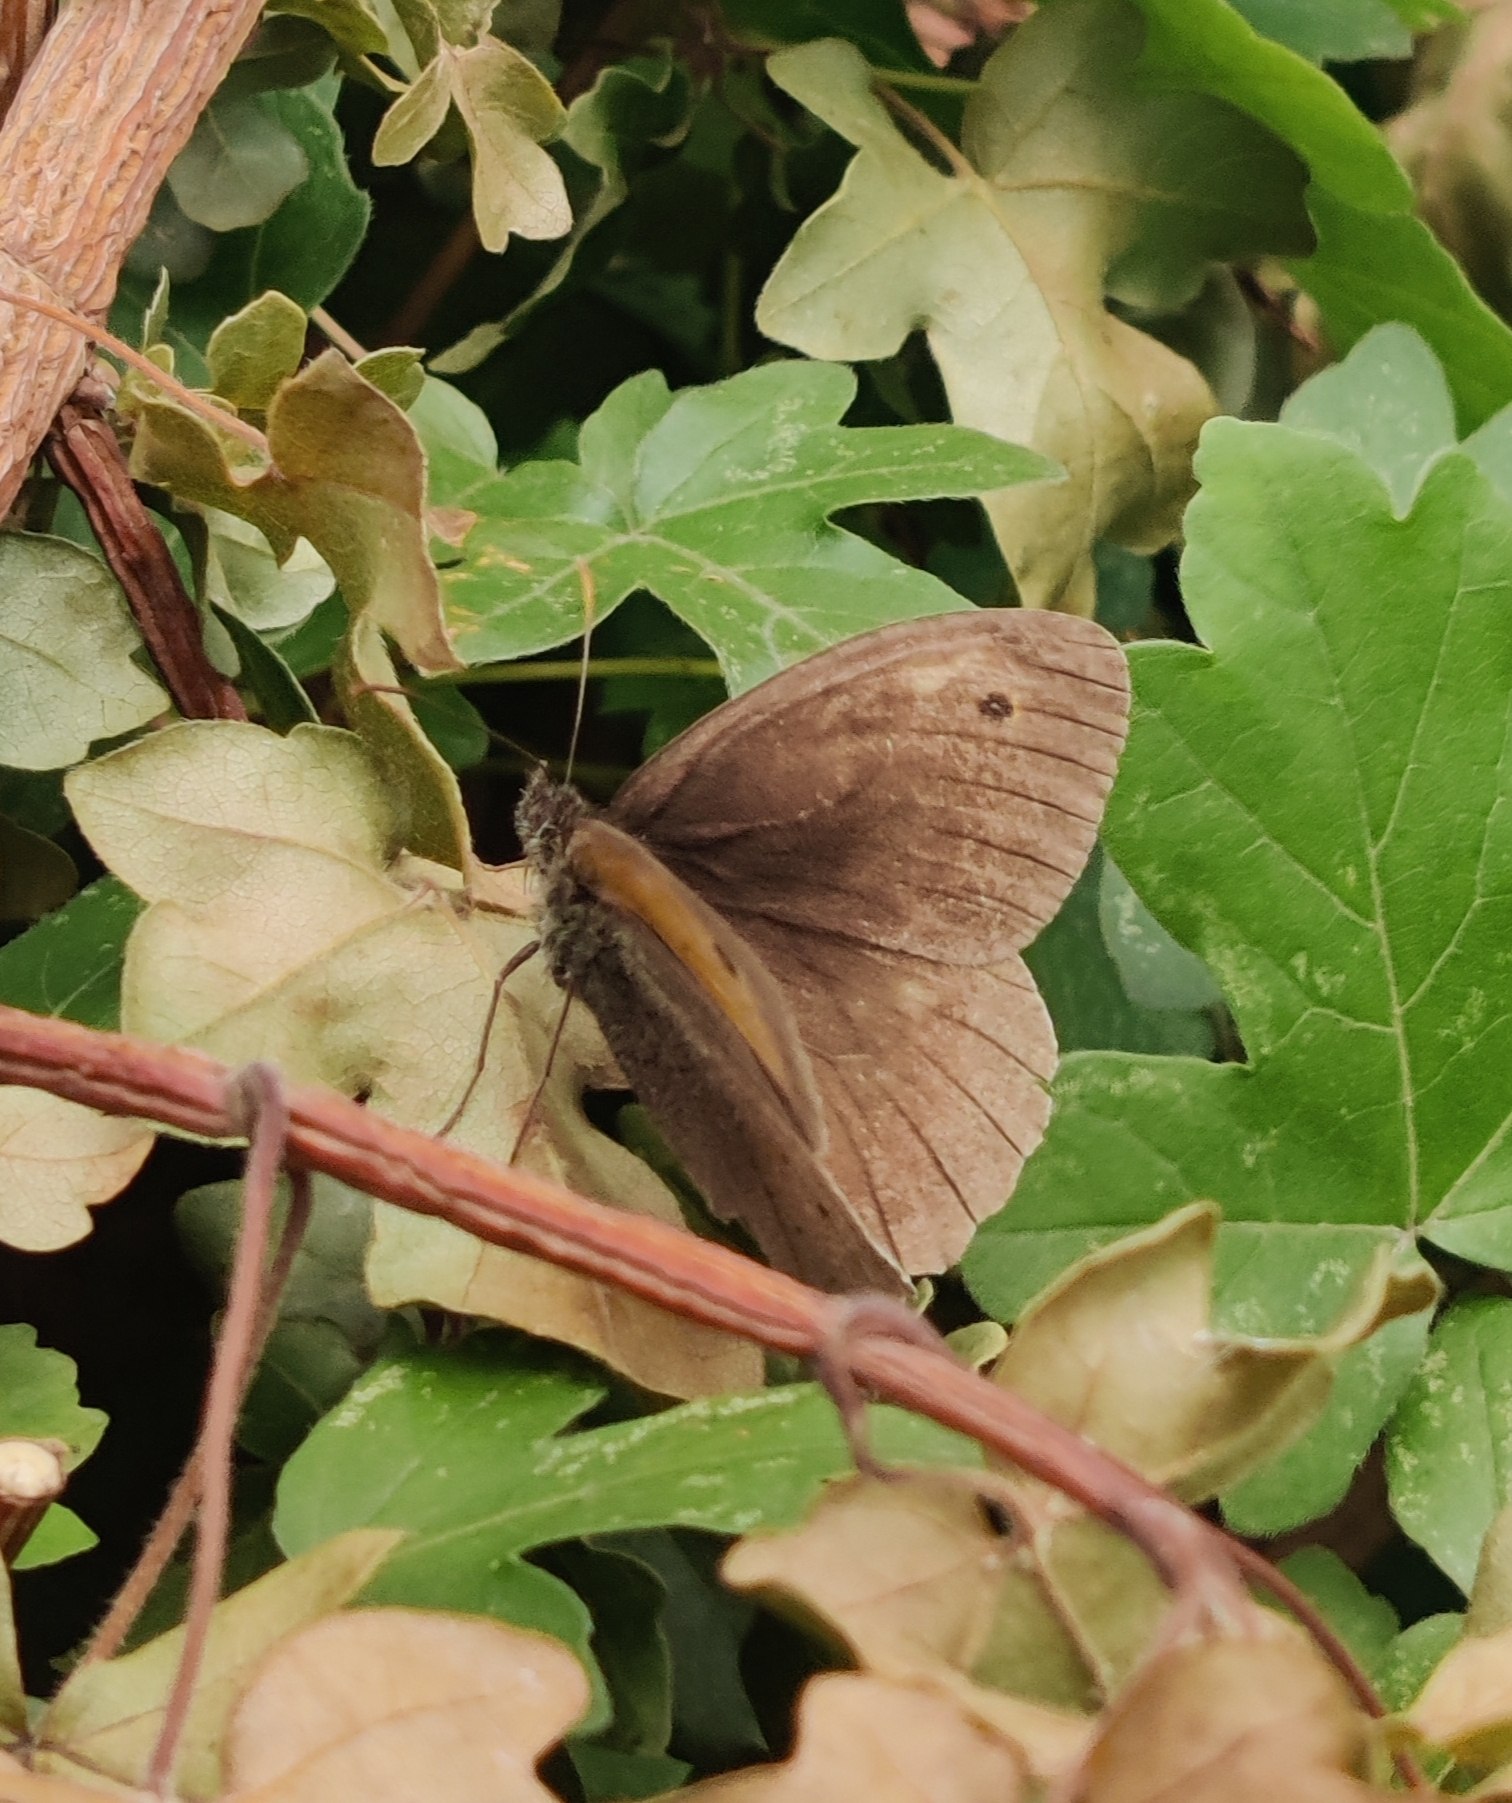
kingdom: Animalia
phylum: Arthropoda
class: Insecta
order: Lepidoptera
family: Nymphalidae
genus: Maniola
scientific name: Maniola jurtina
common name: Græsrandøje
